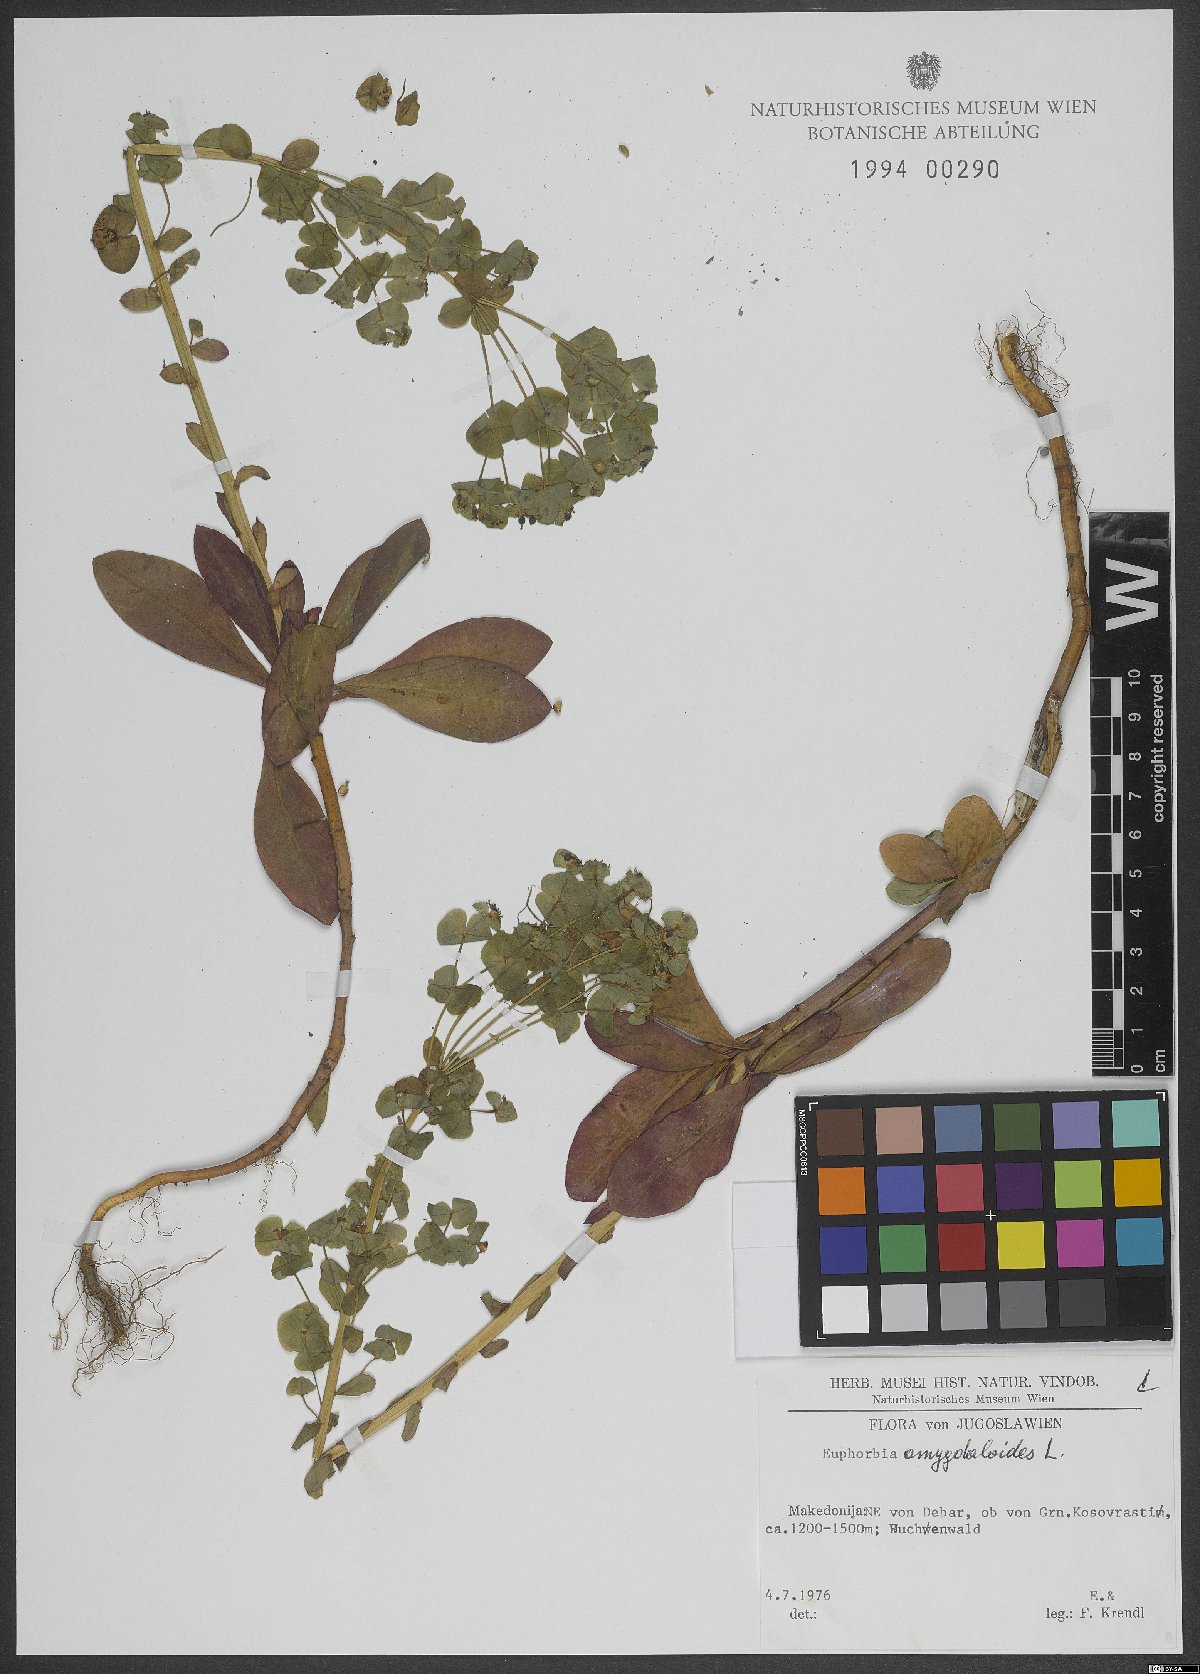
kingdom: Plantae
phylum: Tracheophyta
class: Magnoliopsida
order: Malpighiales
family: Euphorbiaceae
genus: Euphorbia
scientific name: Euphorbia amygdaloides
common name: Wood spurge
